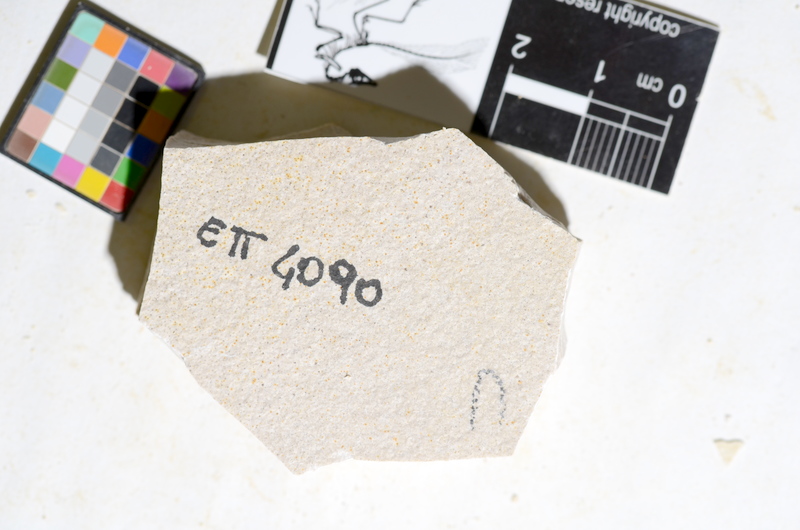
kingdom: Animalia
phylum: Chordata
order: Salmoniformes
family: Orthogonikleithridae
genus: Orthogonikleithrus
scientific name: Orthogonikleithrus hoelli
